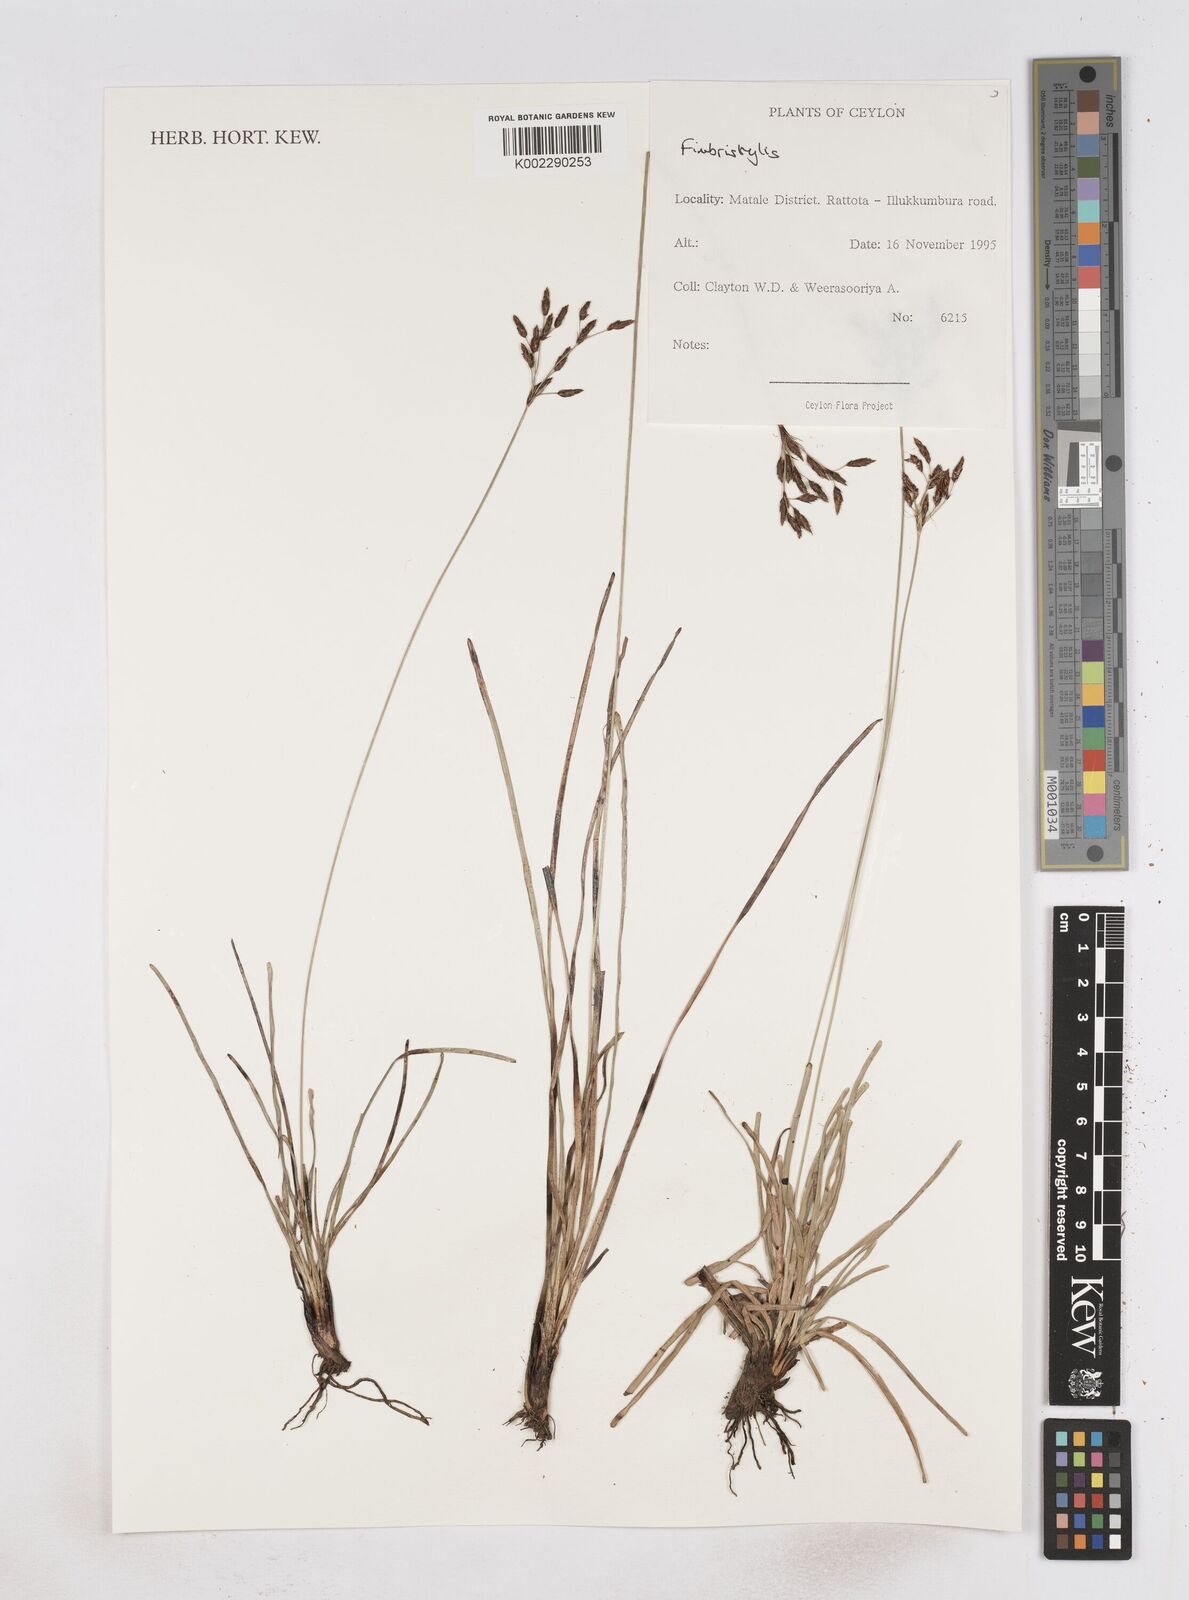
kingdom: Plantae
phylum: Tracheophyta
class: Liliopsida
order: Poales
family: Cyperaceae
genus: Fimbristylis
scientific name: Fimbristylis
